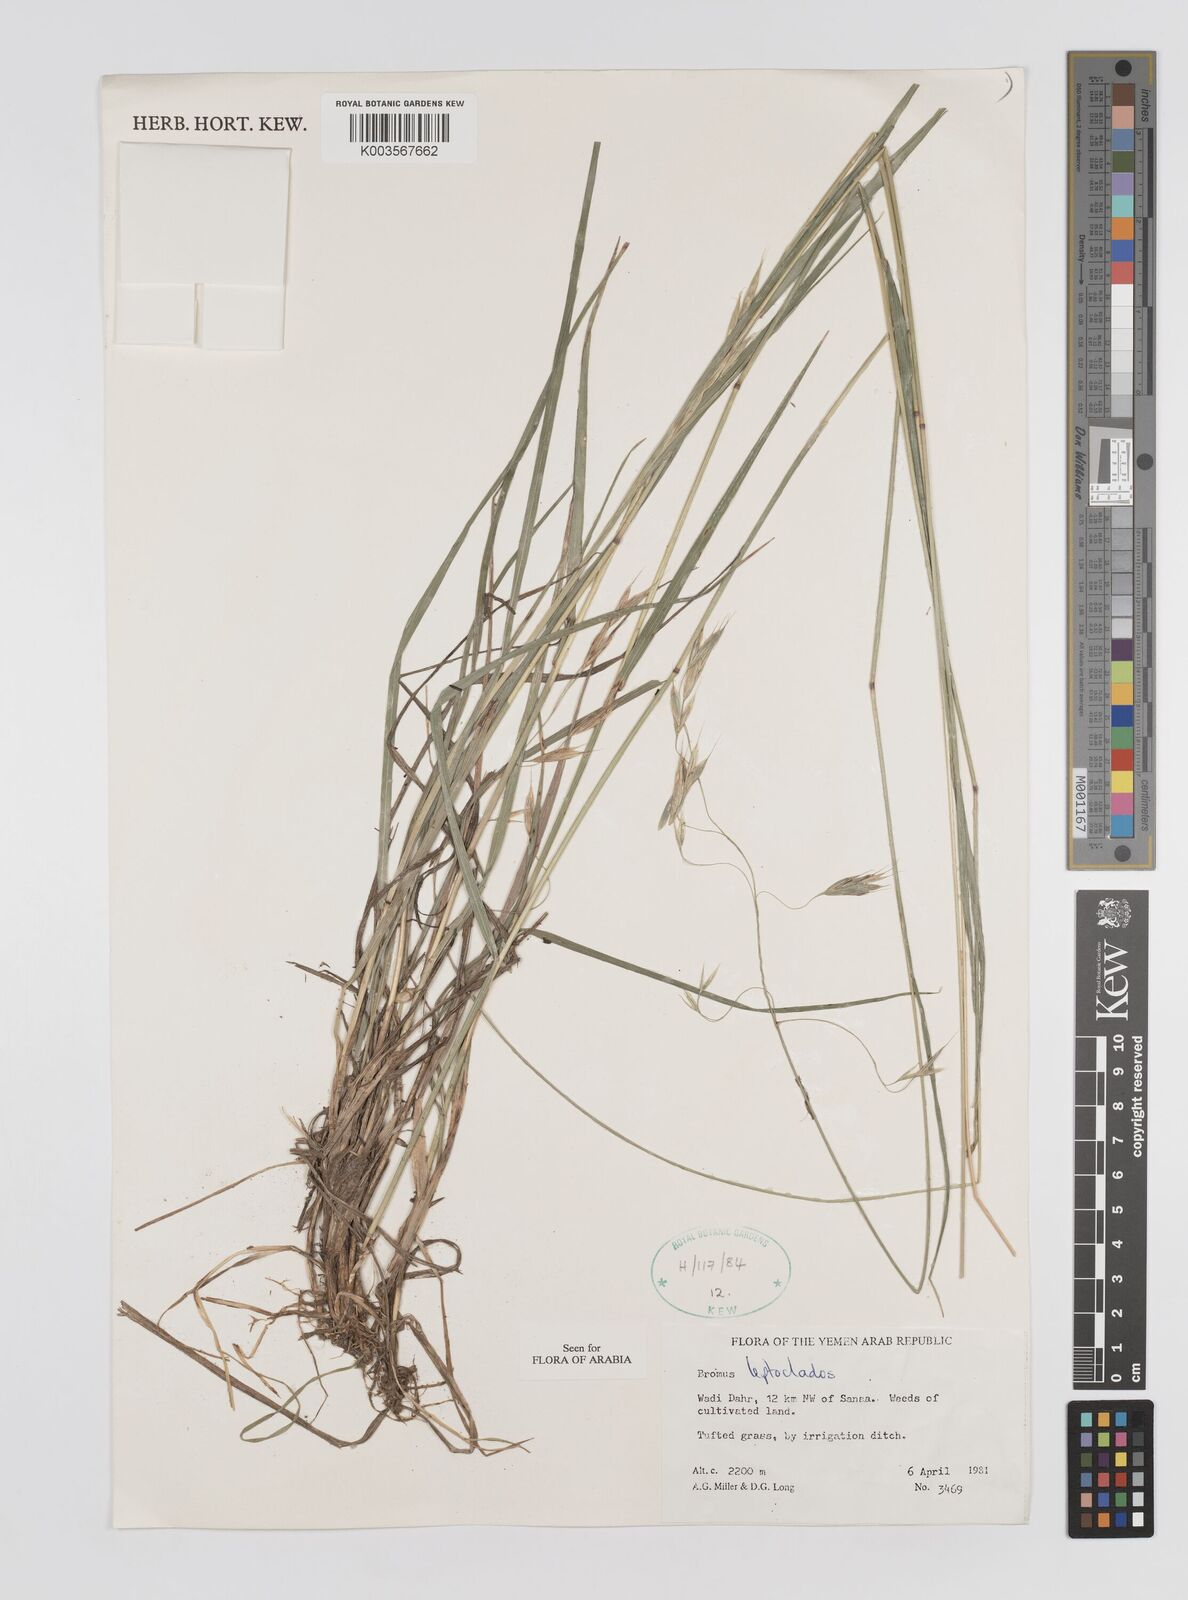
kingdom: Plantae
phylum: Tracheophyta
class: Liliopsida
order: Poales
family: Poaceae
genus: Bromus
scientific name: Bromus leptoclados
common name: Mountain bromegrass
